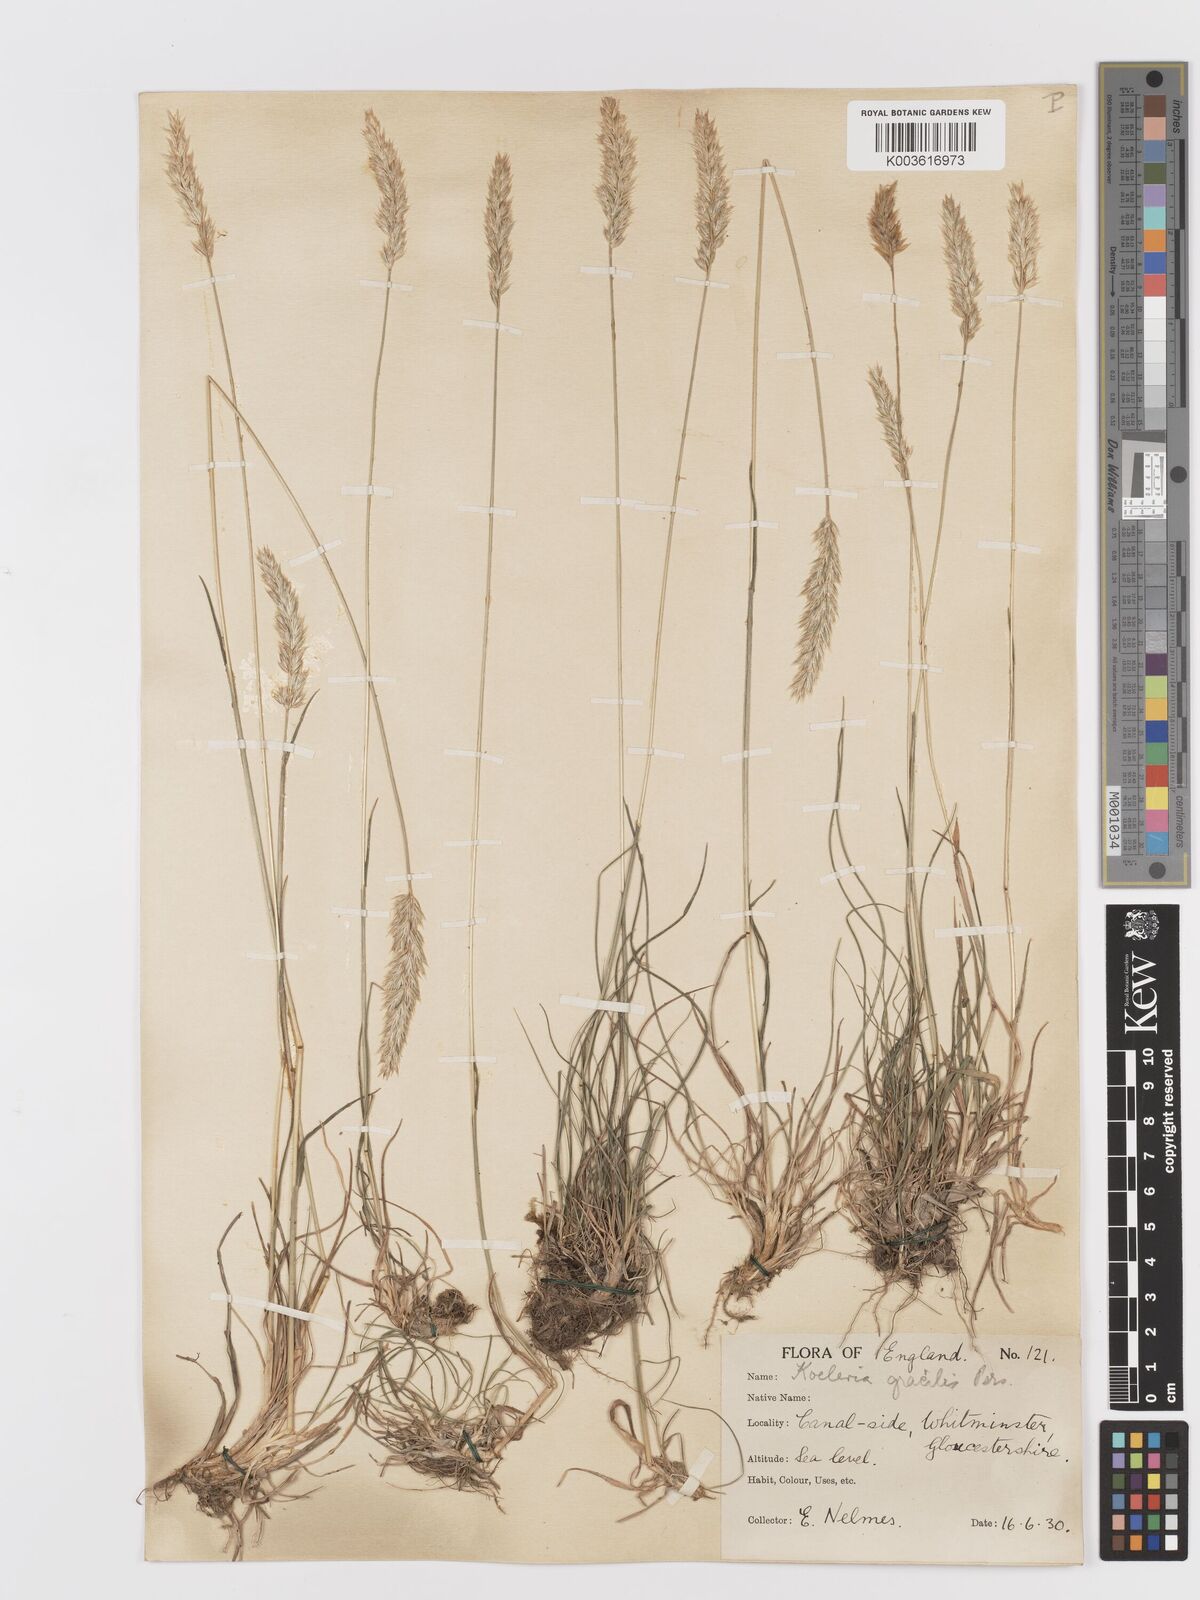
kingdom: Plantae
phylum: Tracheophyta
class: Liliopsida
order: Poales
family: Poaceae
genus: Koeleria
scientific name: Koeleria macrantha
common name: Crested hair-grass
